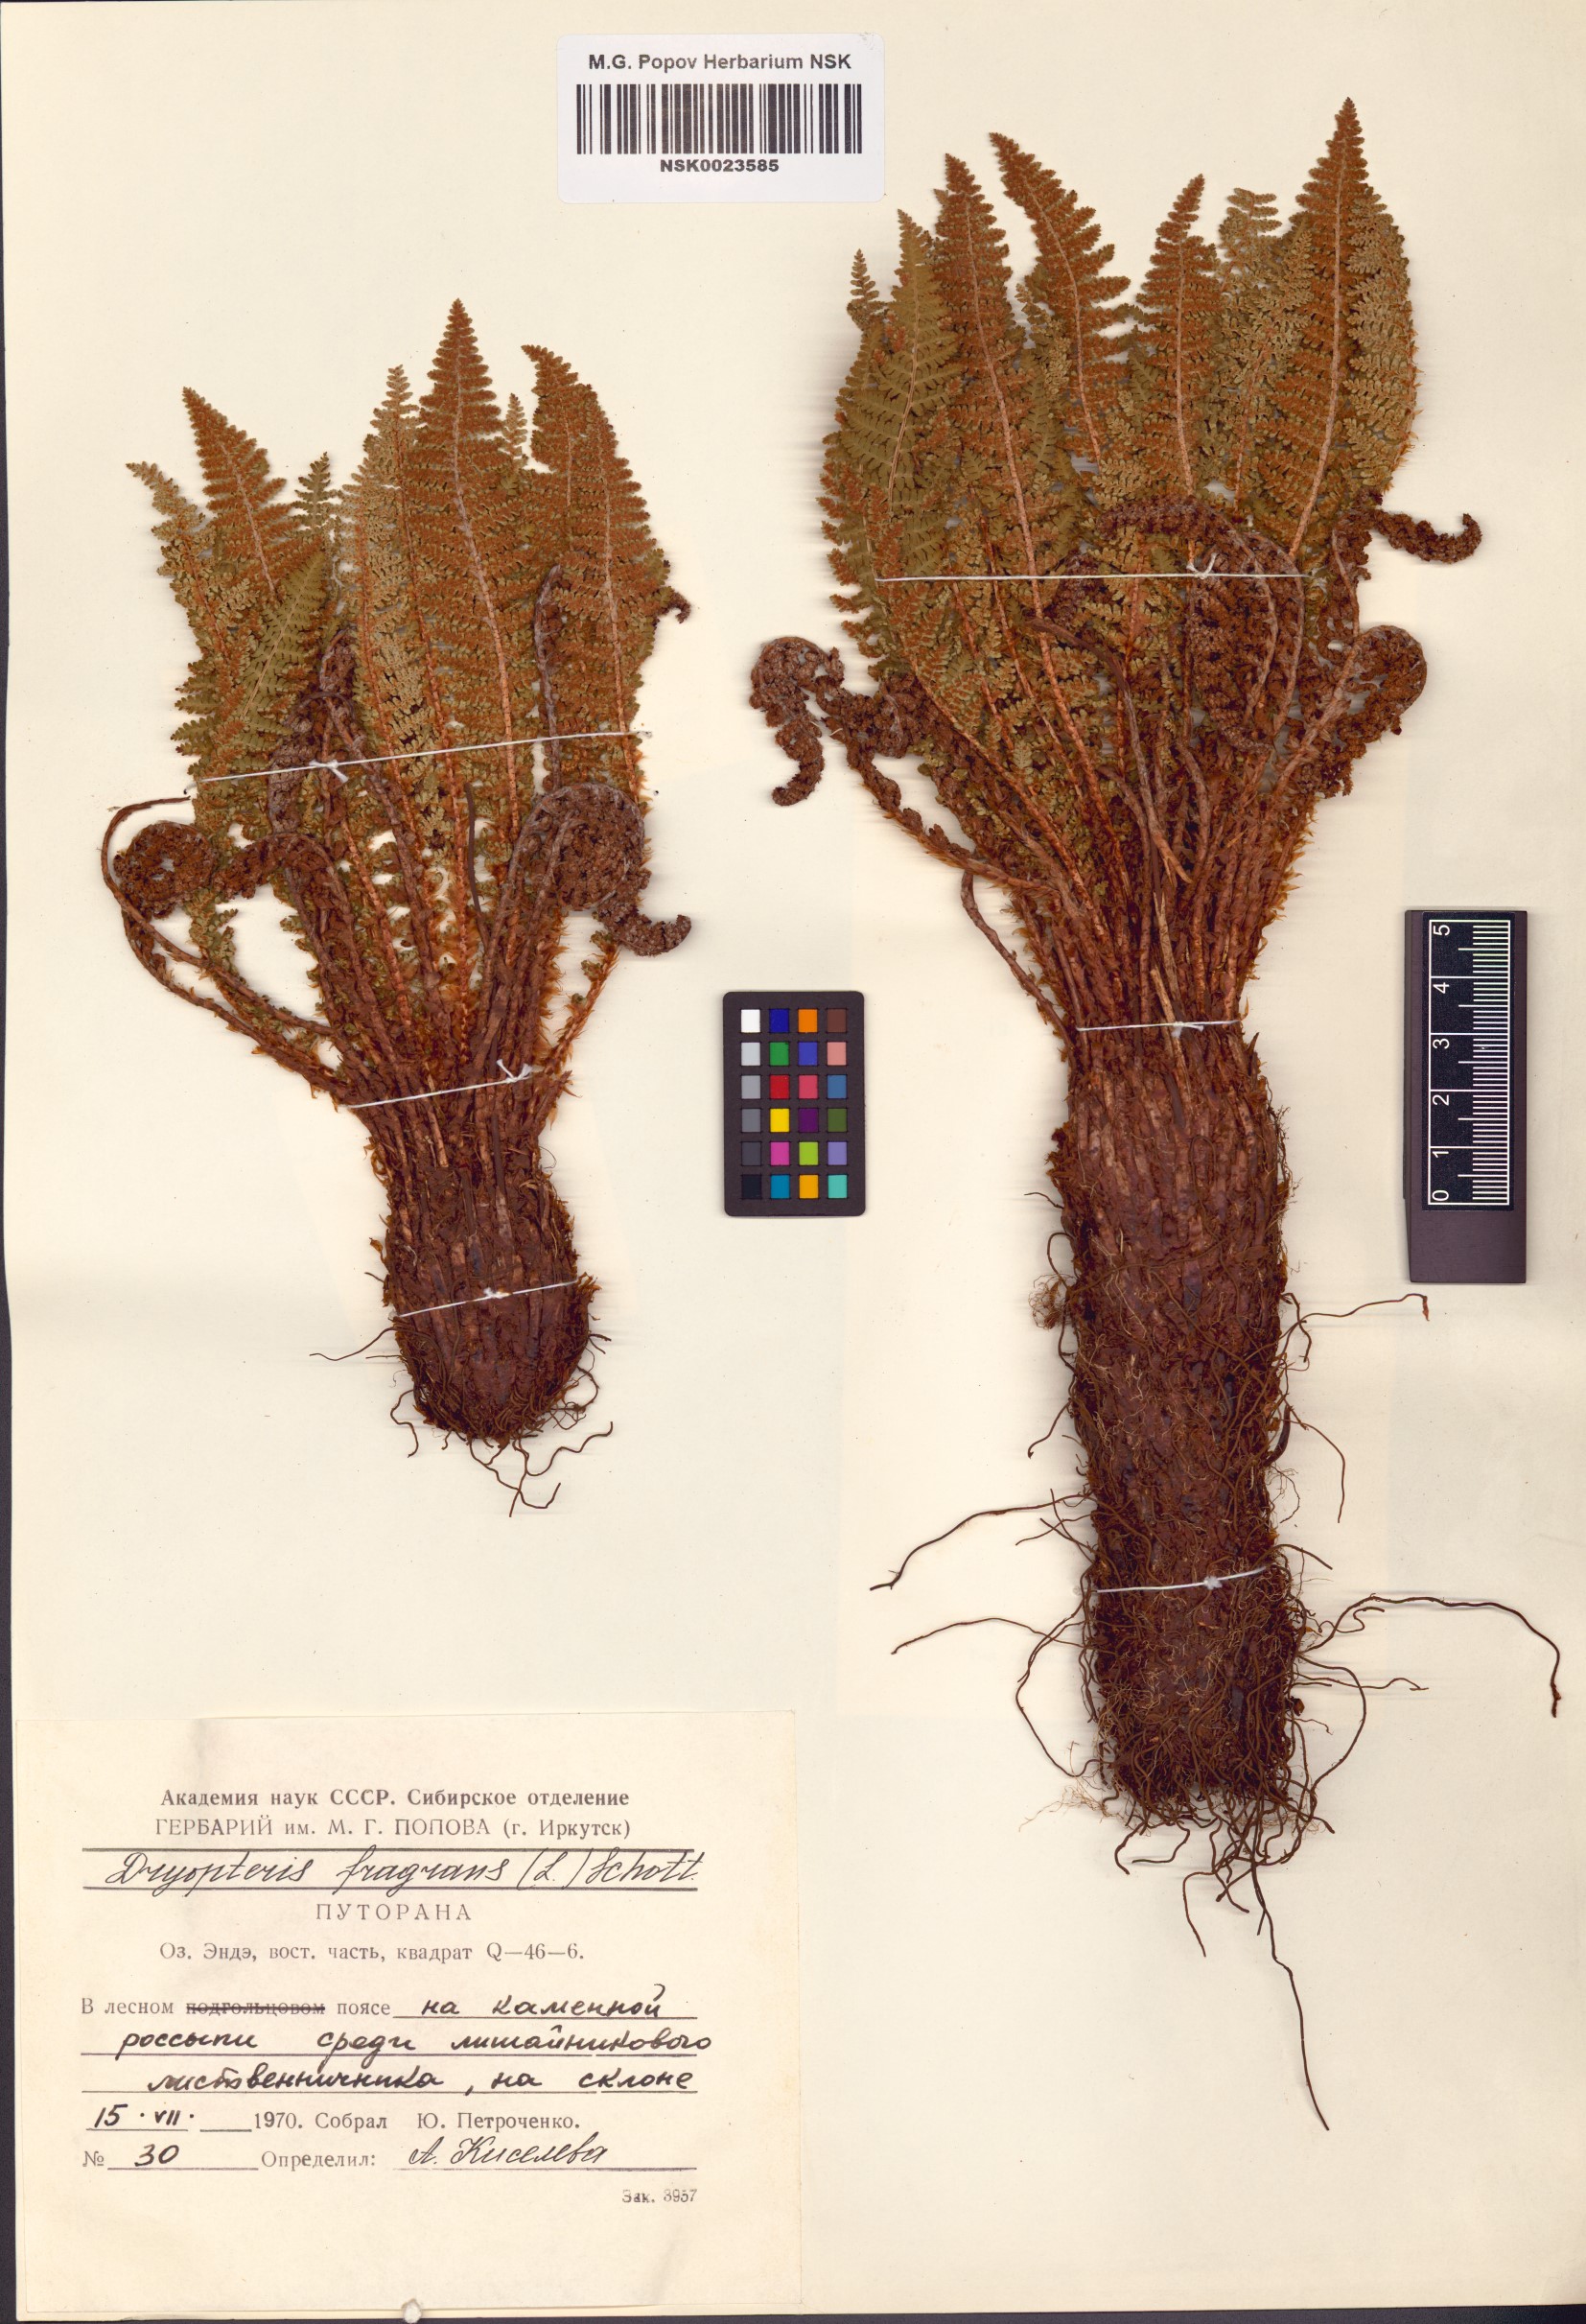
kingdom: Plantae
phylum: Tracheophyta
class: Polypodiopsida
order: Polypodiales
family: Dryopteridaceae
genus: Dryopteris
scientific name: Dryopteris fragrans
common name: Fragrant wood fern
